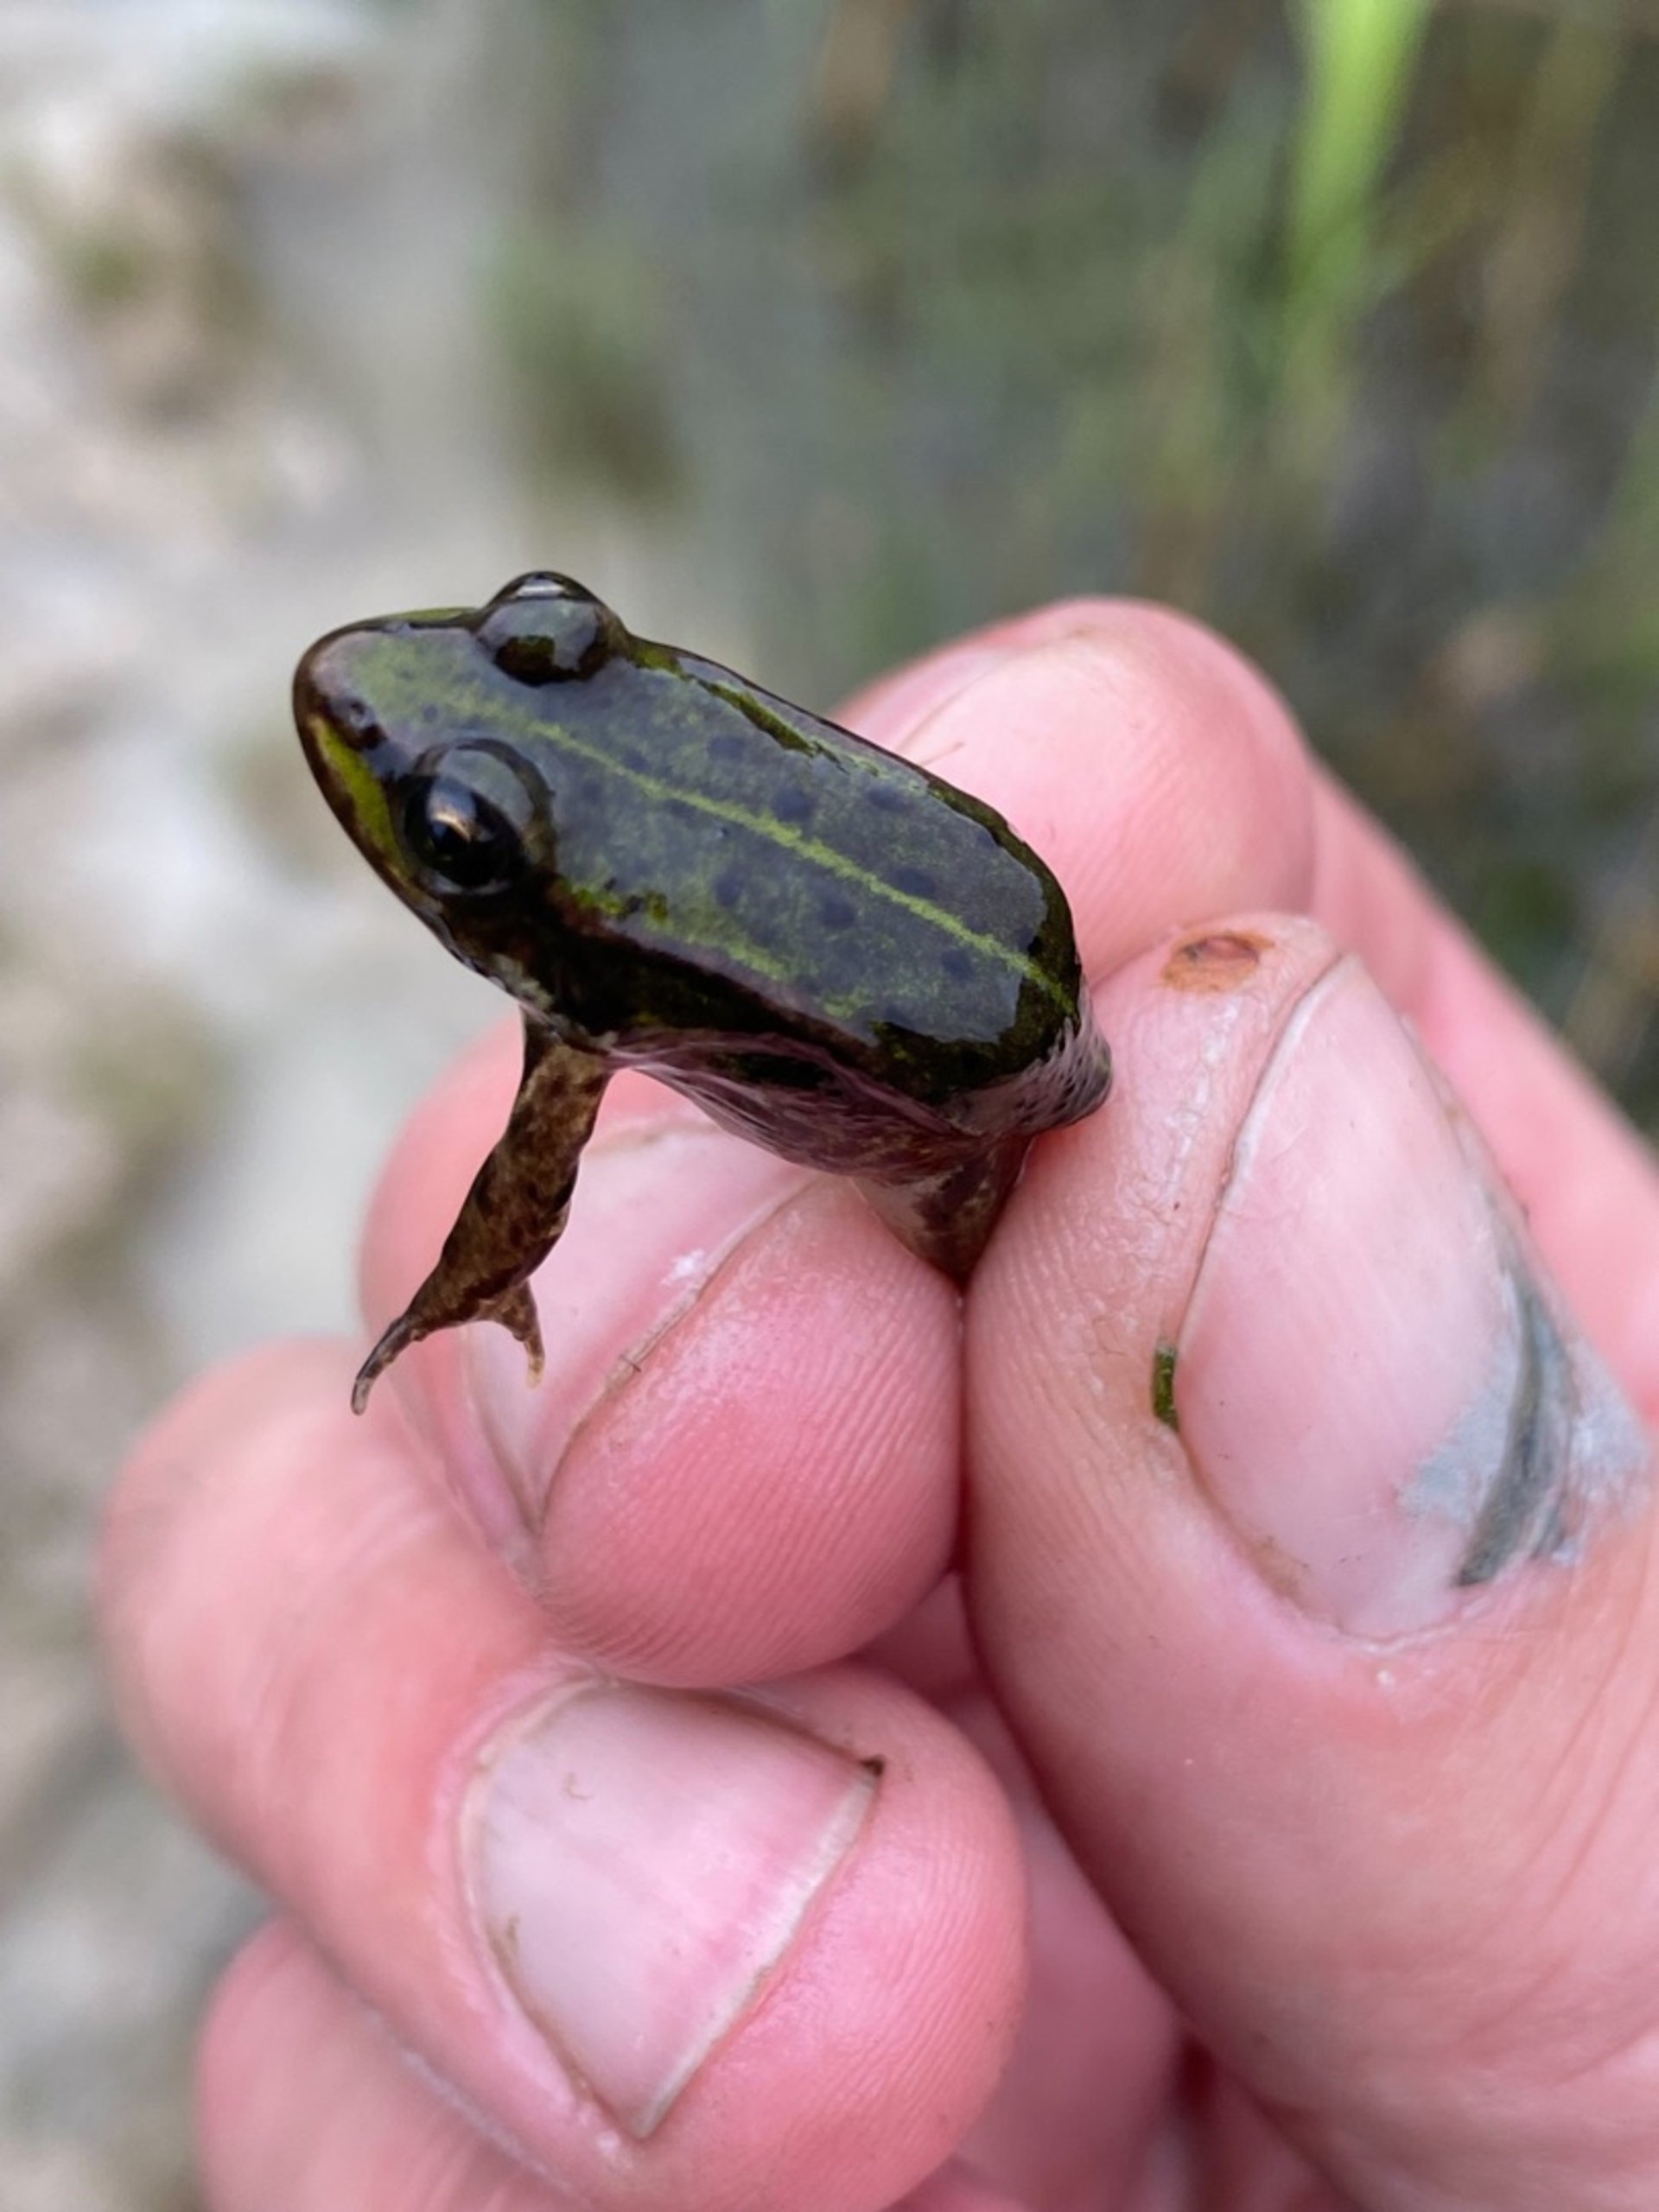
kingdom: Animalia
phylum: Chordata
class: Amphibia
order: Anura
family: Ranidae
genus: Pelophylax
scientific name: Pelophylax lessonae
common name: Grøn frø
